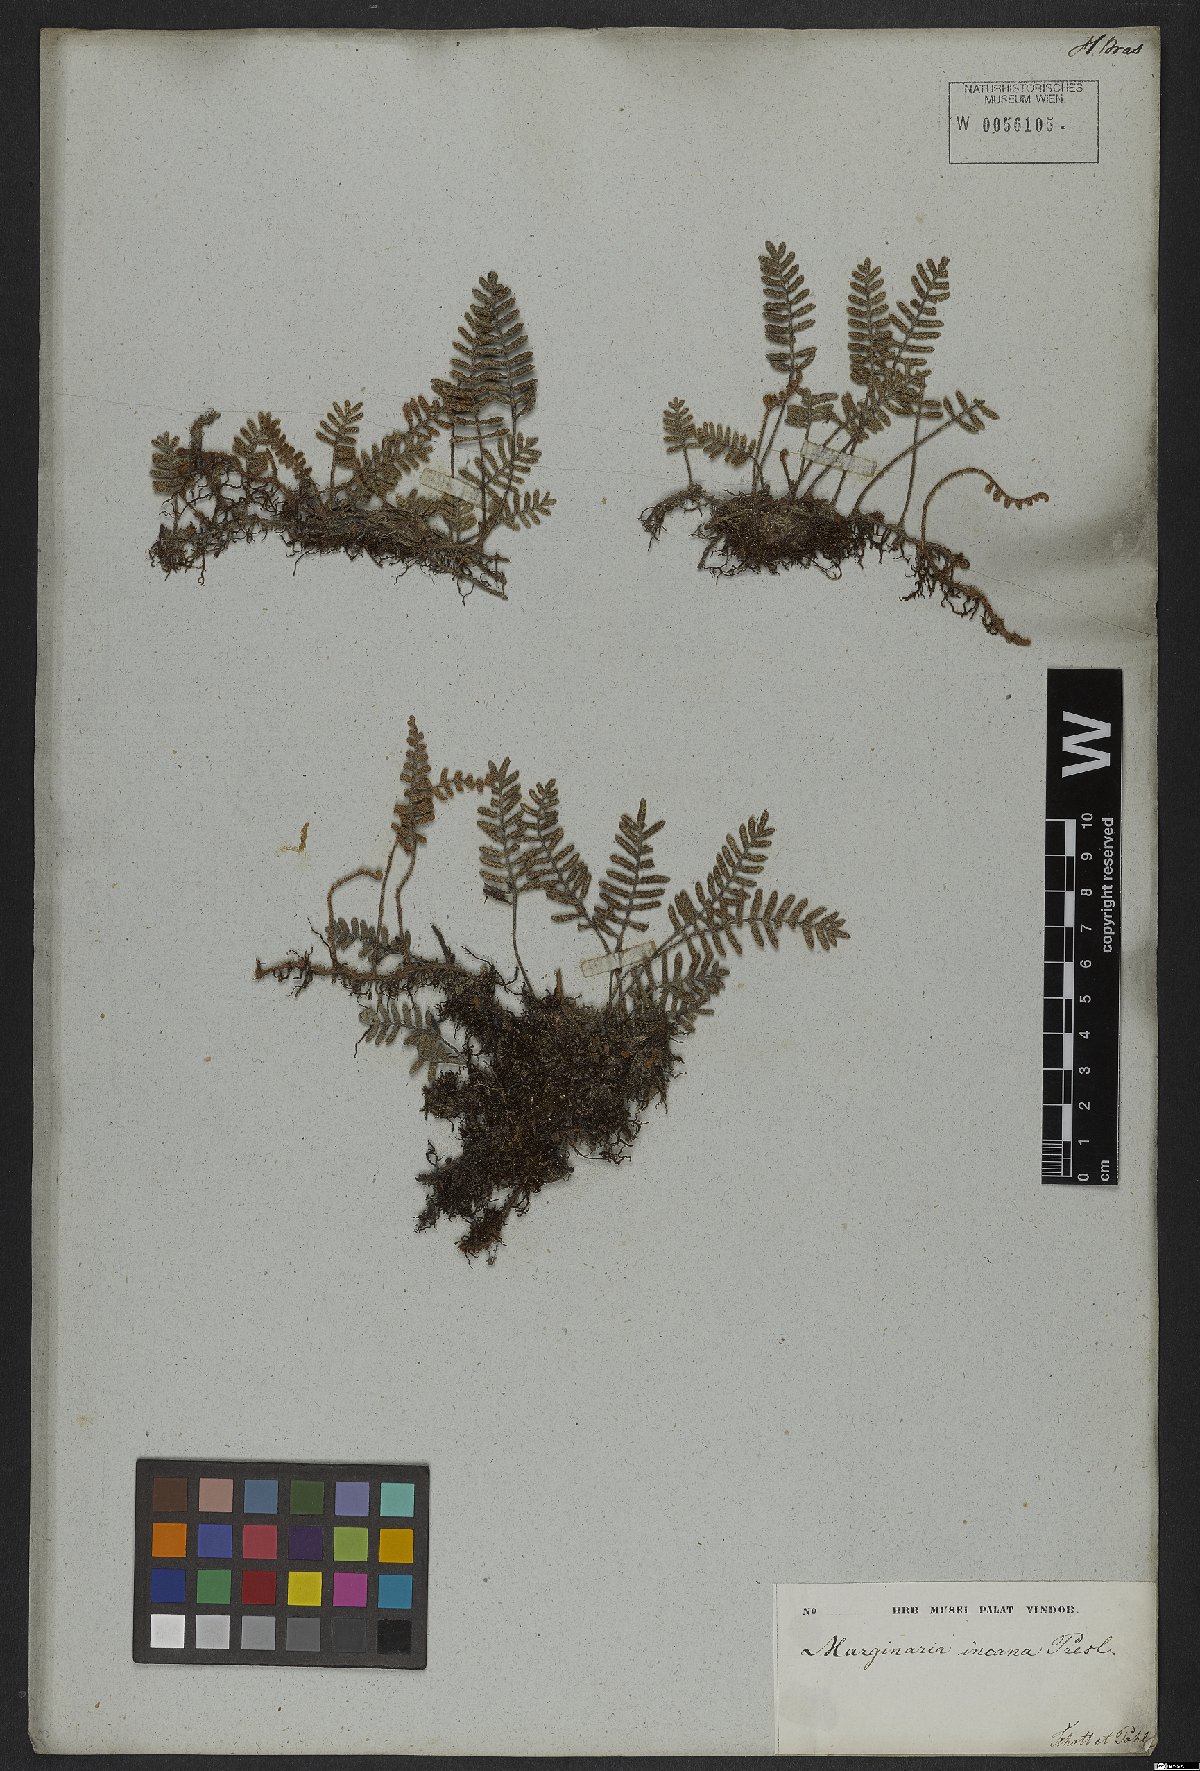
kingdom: Plantae
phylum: Tracheophyta
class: Polypodiopsida
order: Polypodiales
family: Polypodiaceae
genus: Pleopeltis
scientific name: Pleopeltis polypodioides
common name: Resurrection fern
